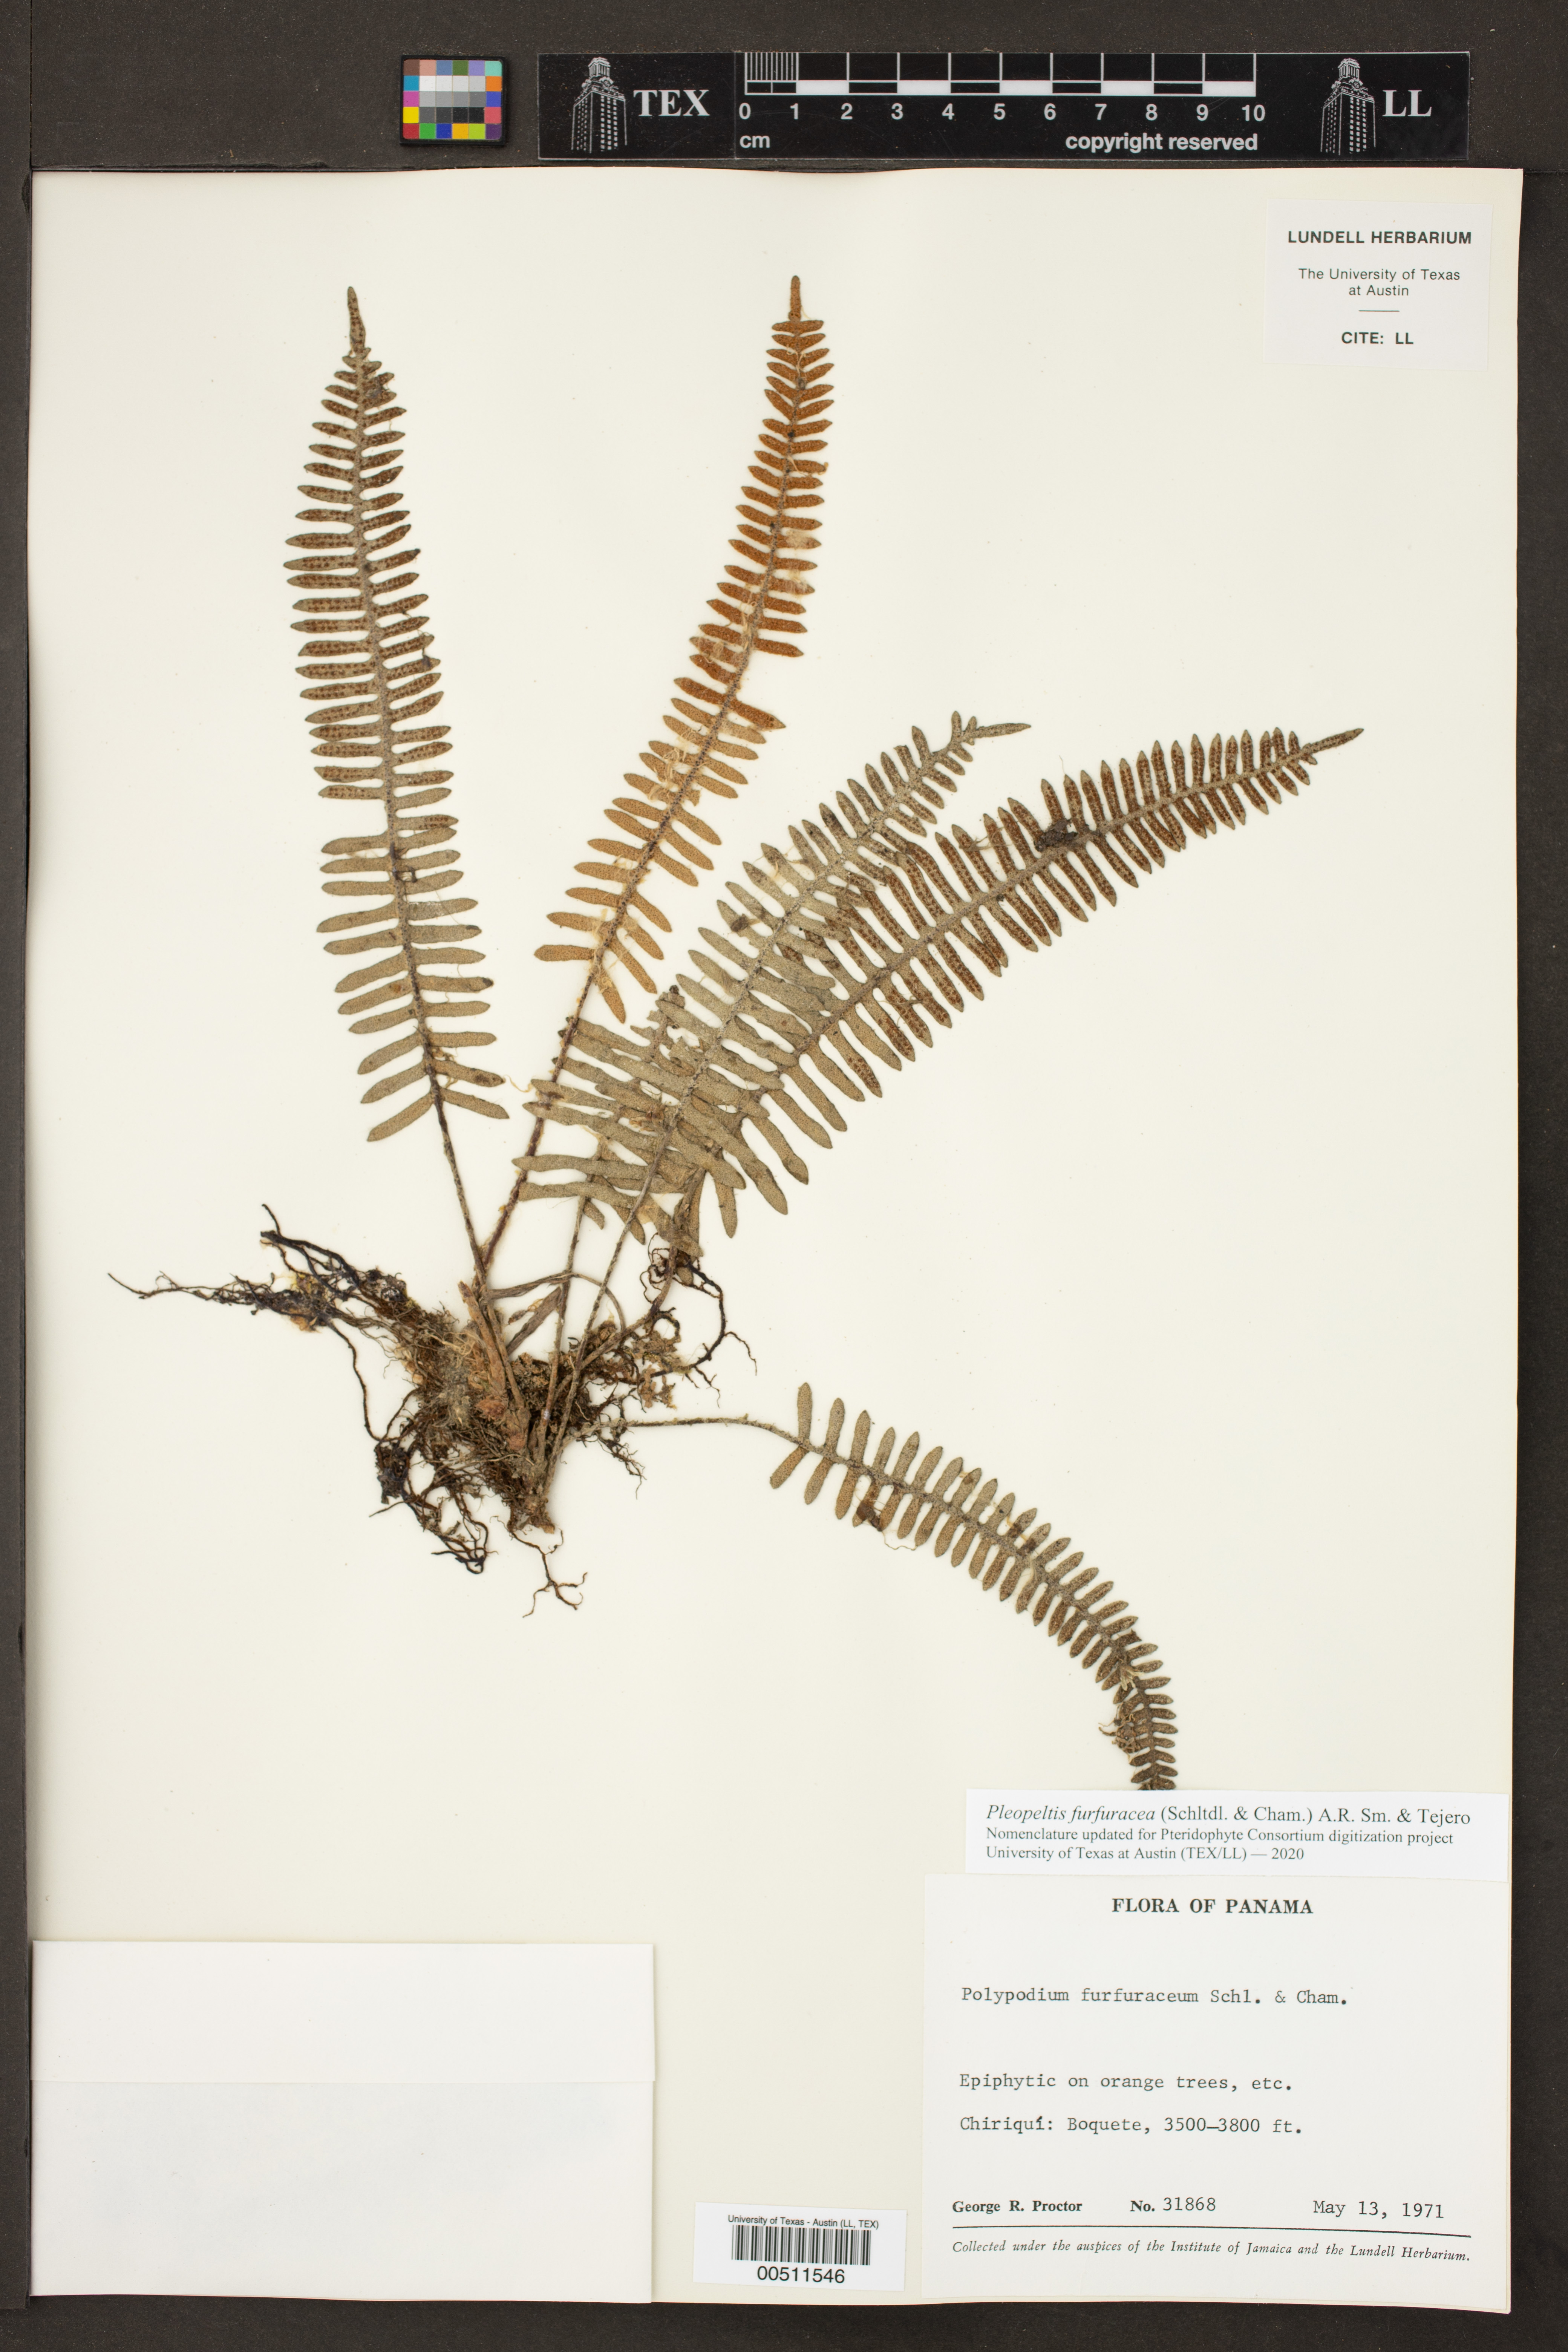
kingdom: Plantae
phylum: Tracheophyta
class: Polypodiopsida
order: Polypodiales
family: Polypodiaceae
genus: Pleopeltis
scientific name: Pleopeltis furfuracea
